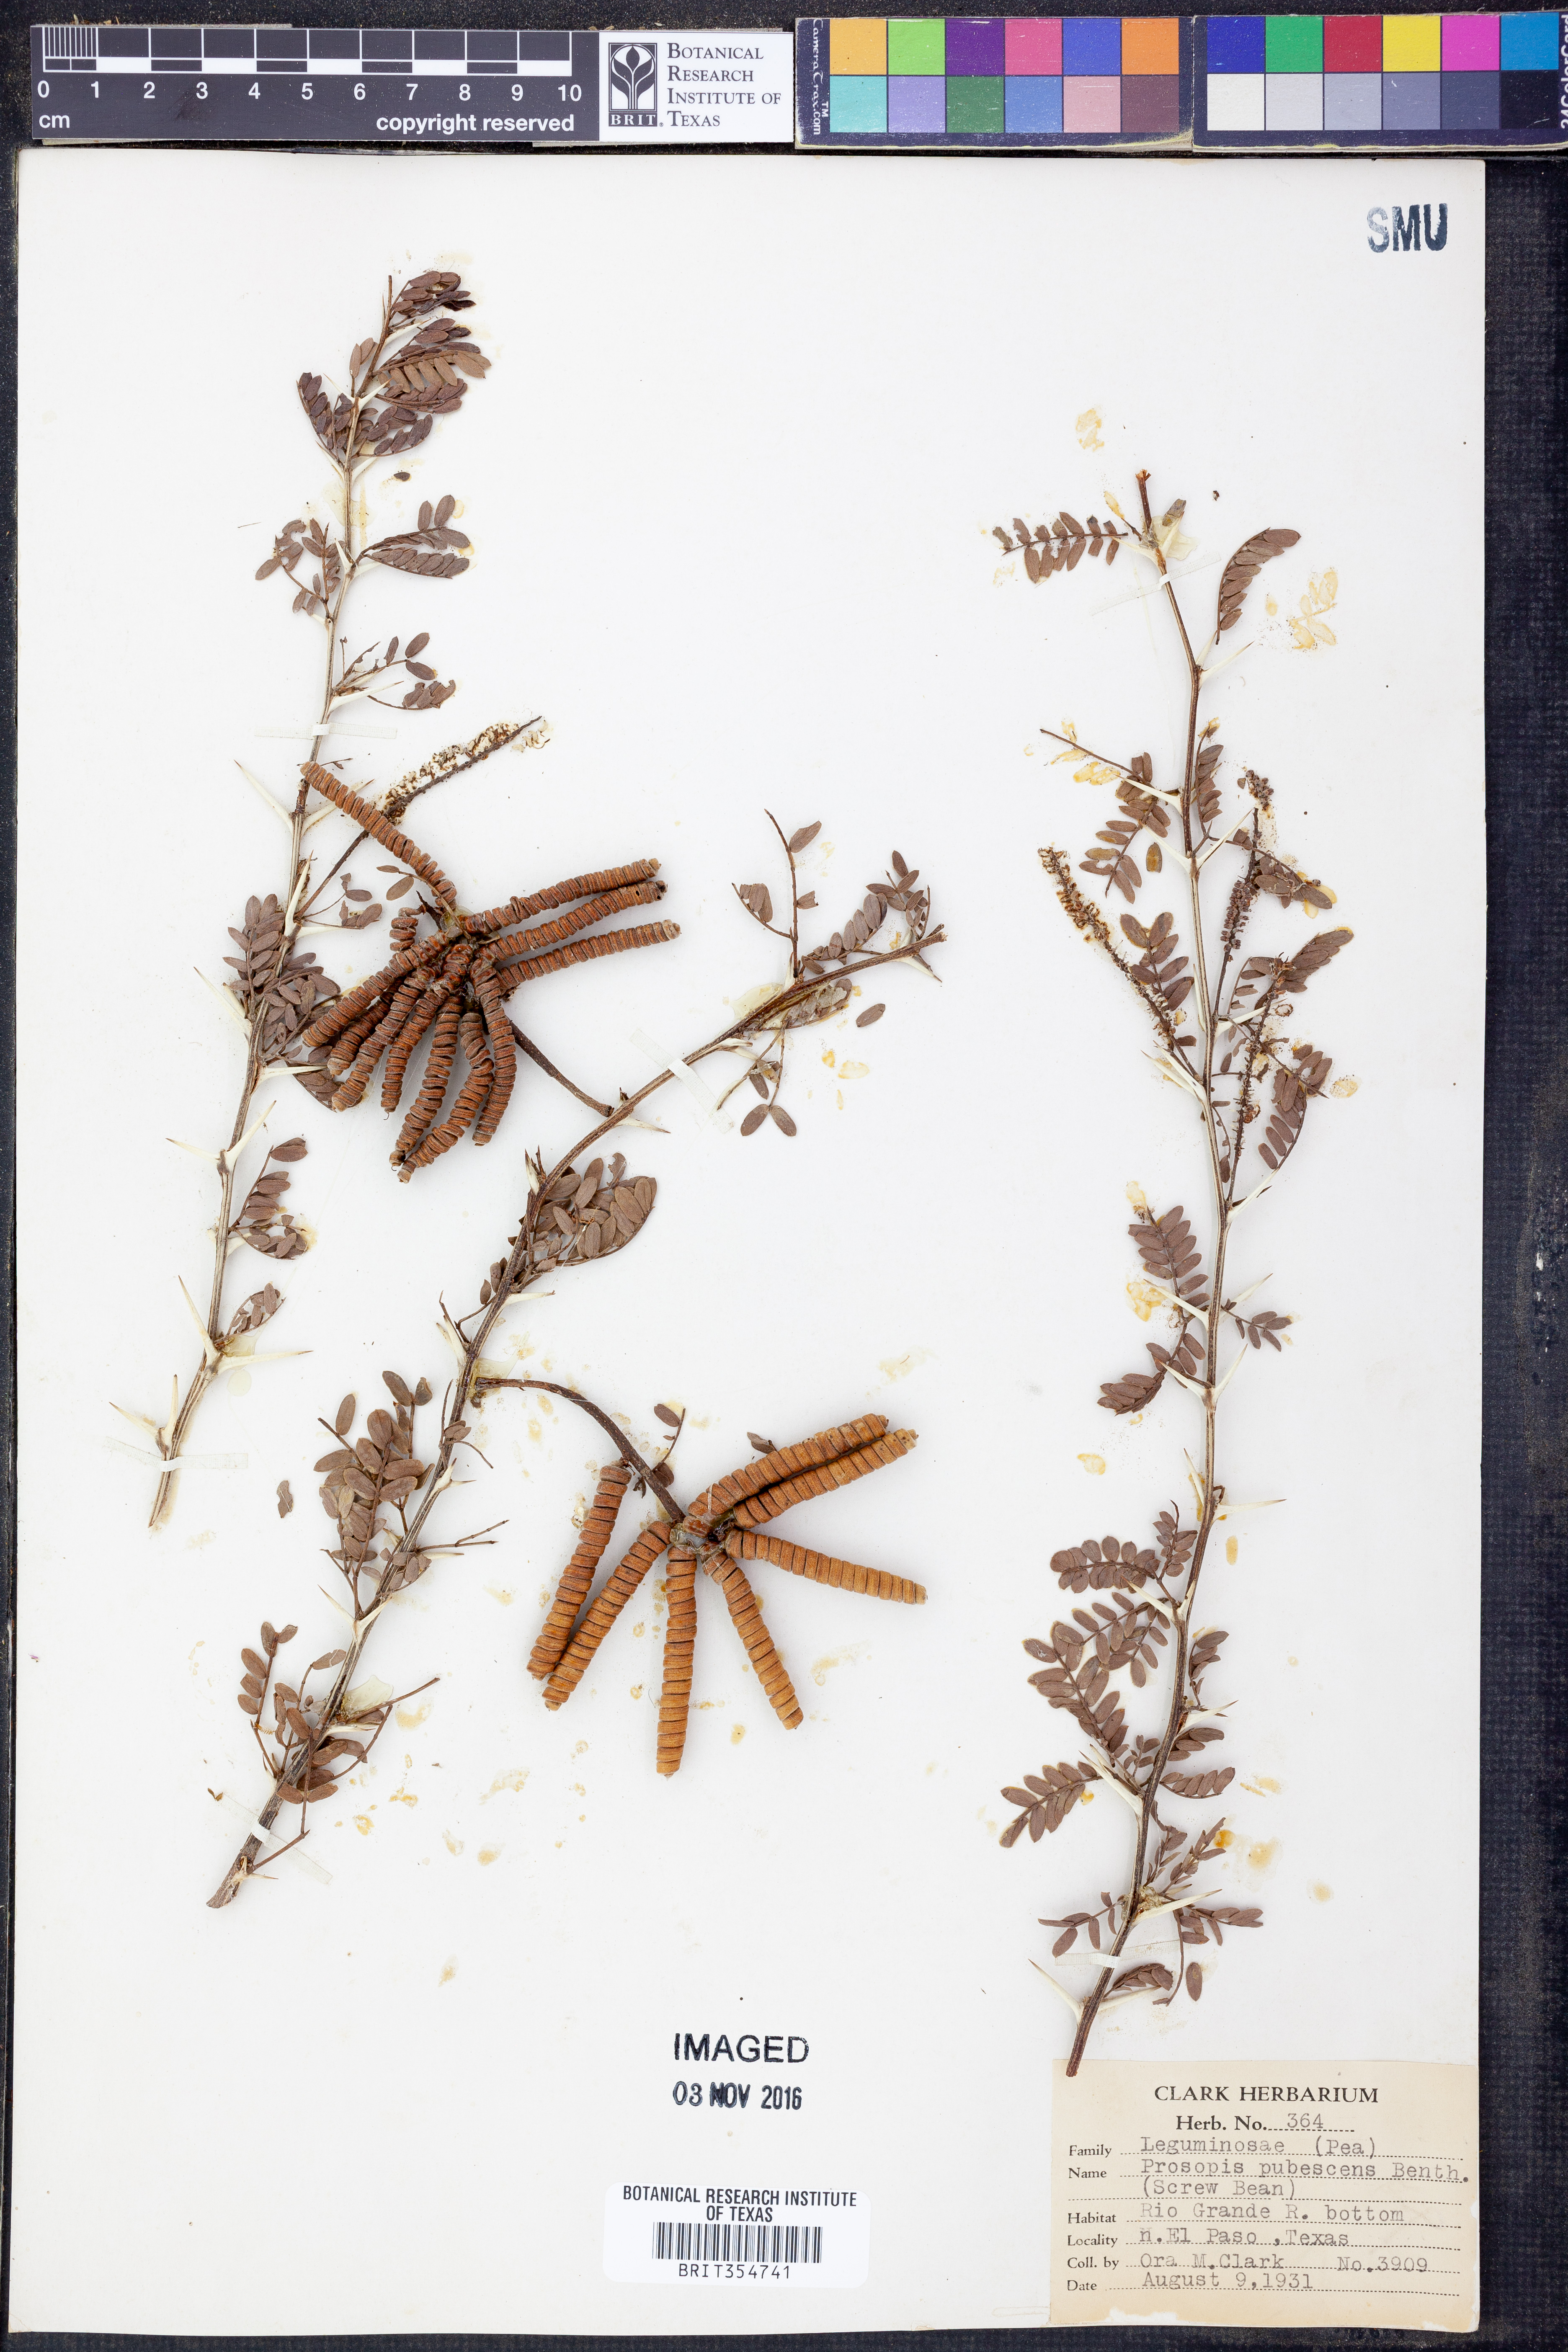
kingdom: Plantae
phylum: Tracheophyta
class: Magnoliopsida
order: Fabales
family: Fabaceae
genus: Prosopis
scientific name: Prosopis pubescens
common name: Screw-bean
